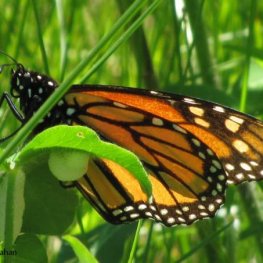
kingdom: Animalia
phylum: Arthropoda
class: Insecta
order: Lepidoptera
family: Nymphalidae
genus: Danaus
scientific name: Danaus plexippus
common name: Monarch
